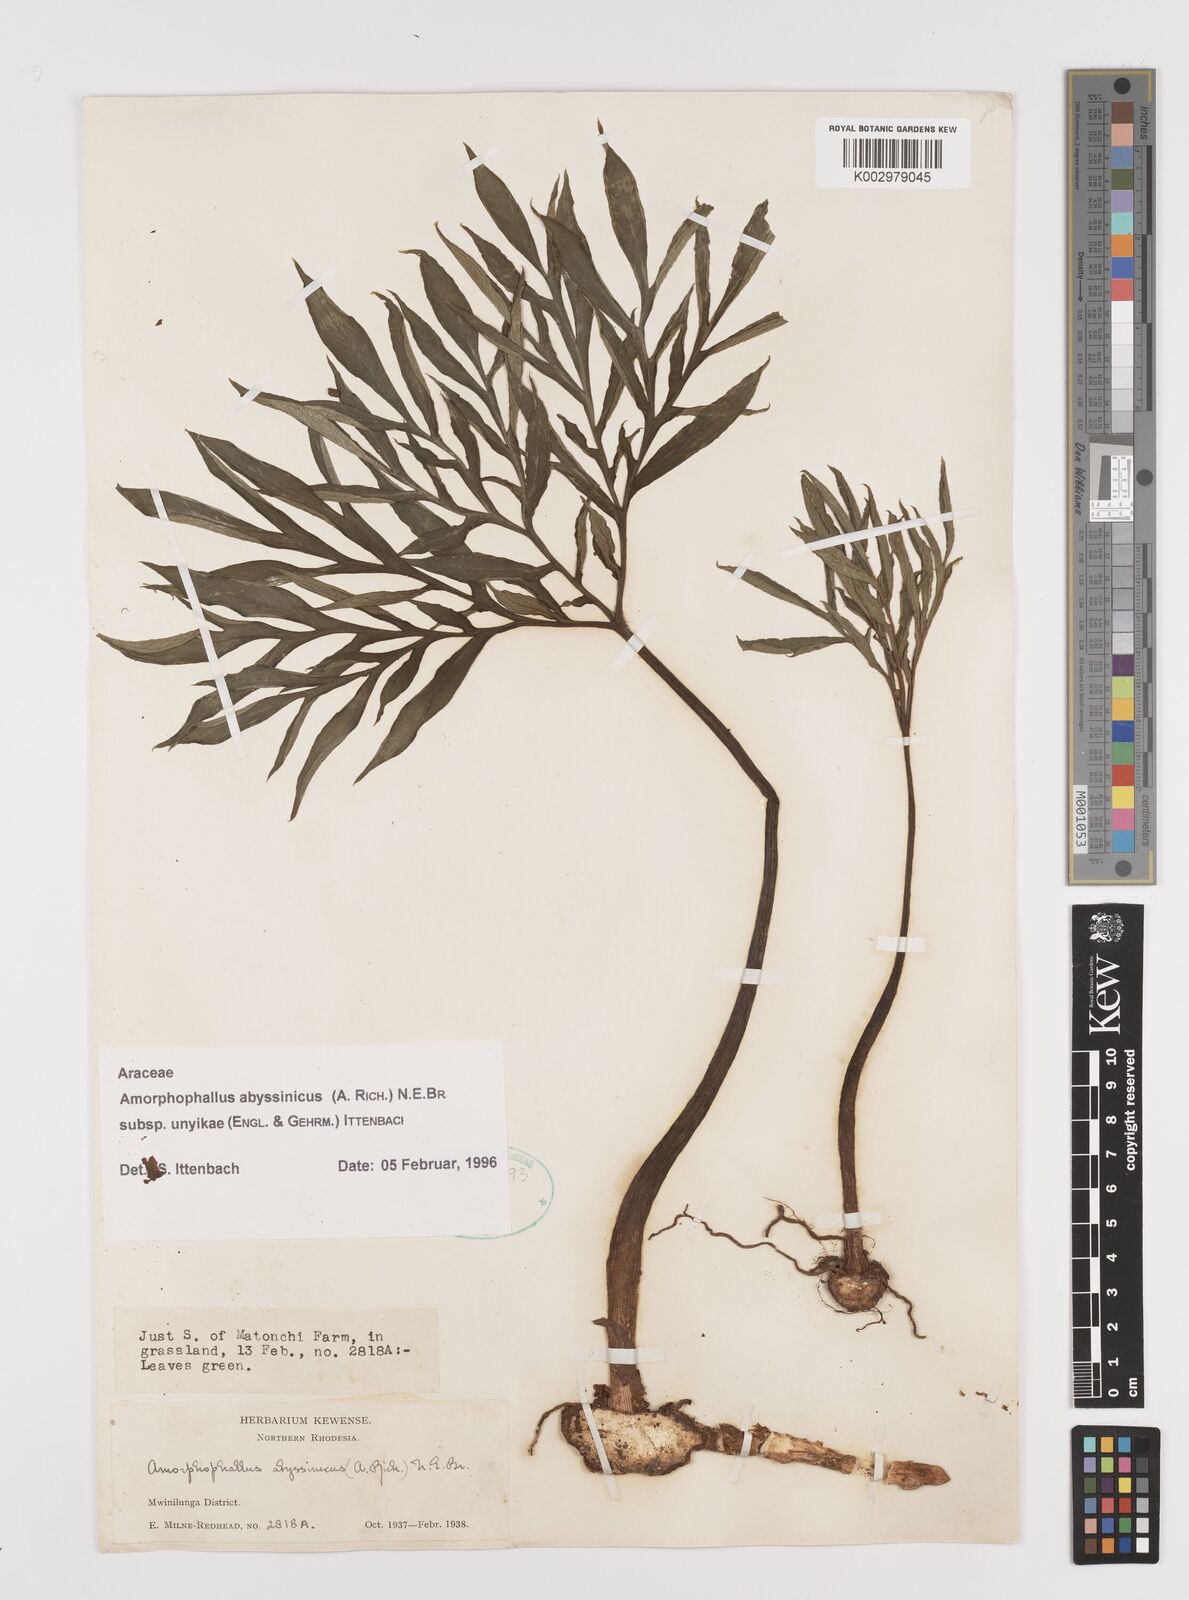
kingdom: Plantae
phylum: Tracheophyta
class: Liliopsida
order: Alismatales
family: Araceae
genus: Amorphophallus
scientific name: Amorphophallus abyssinicus
